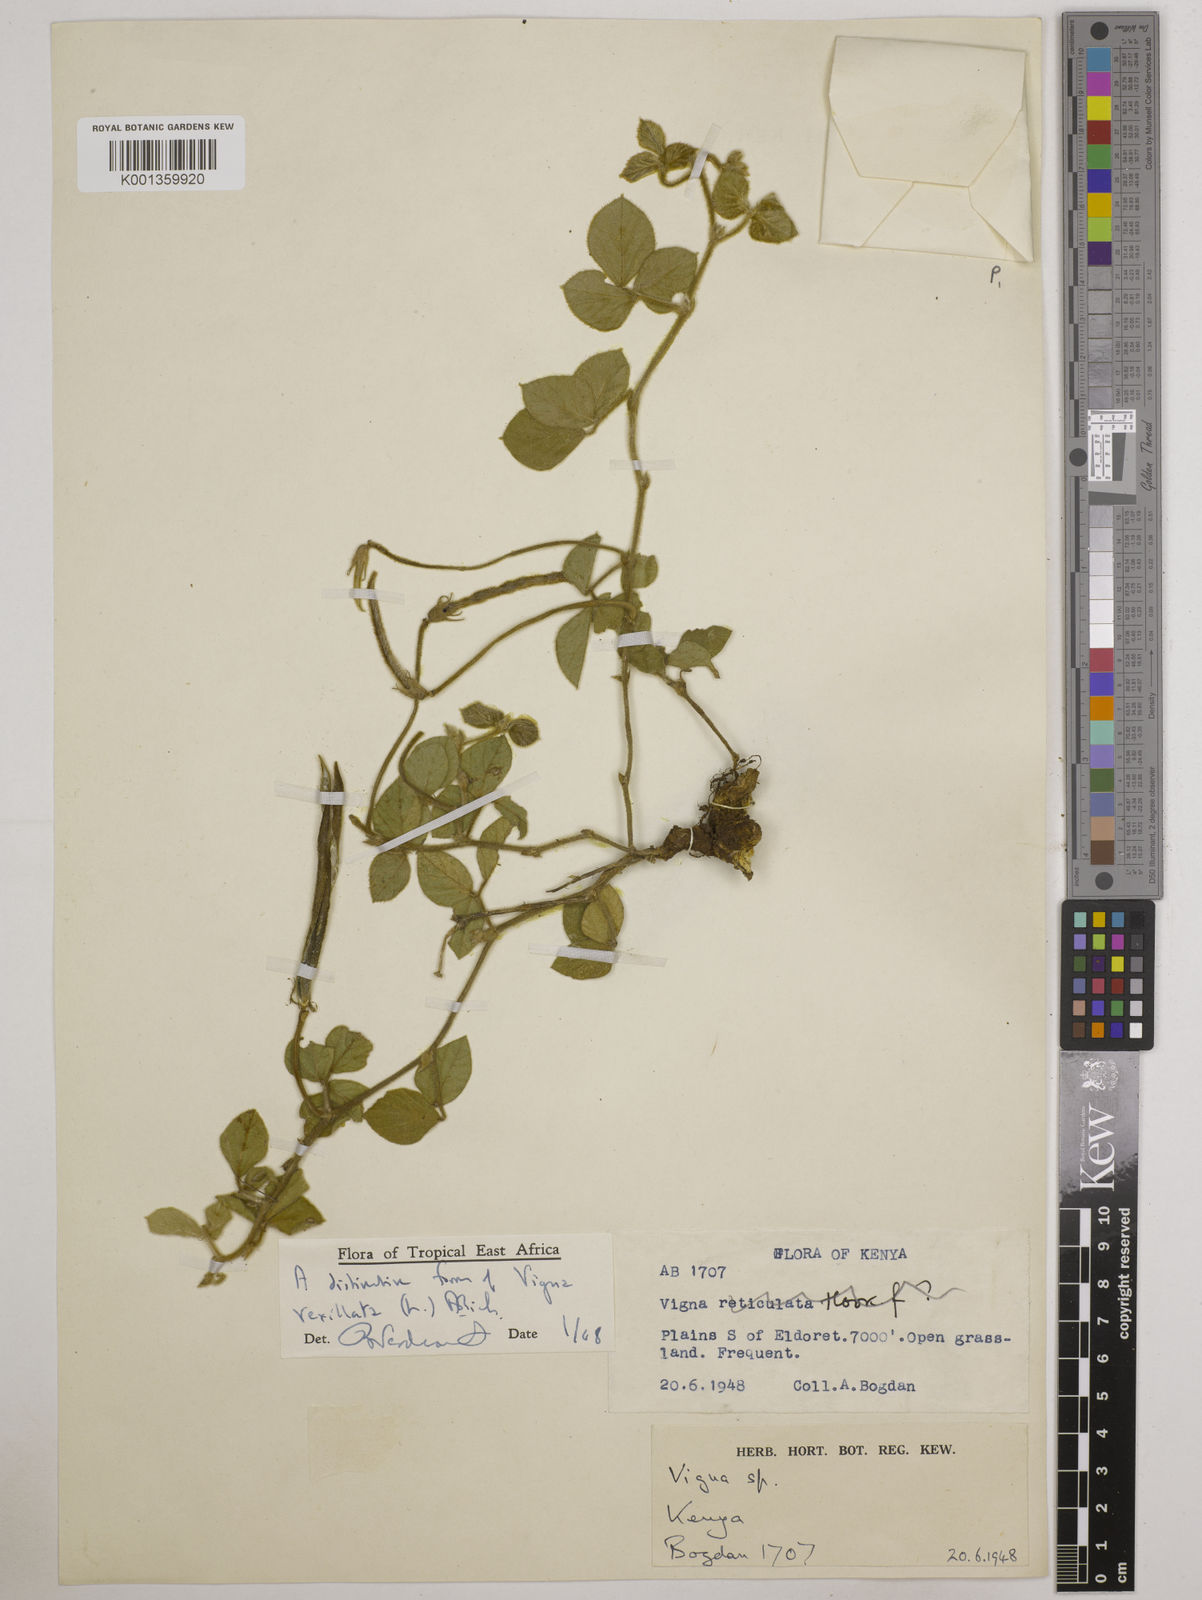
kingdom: Plantae
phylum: Tracheophyta
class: Magnoliopsida
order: Fabales
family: Fabaceae
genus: Vigna
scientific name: Vigna vexillata
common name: Zombi pea
